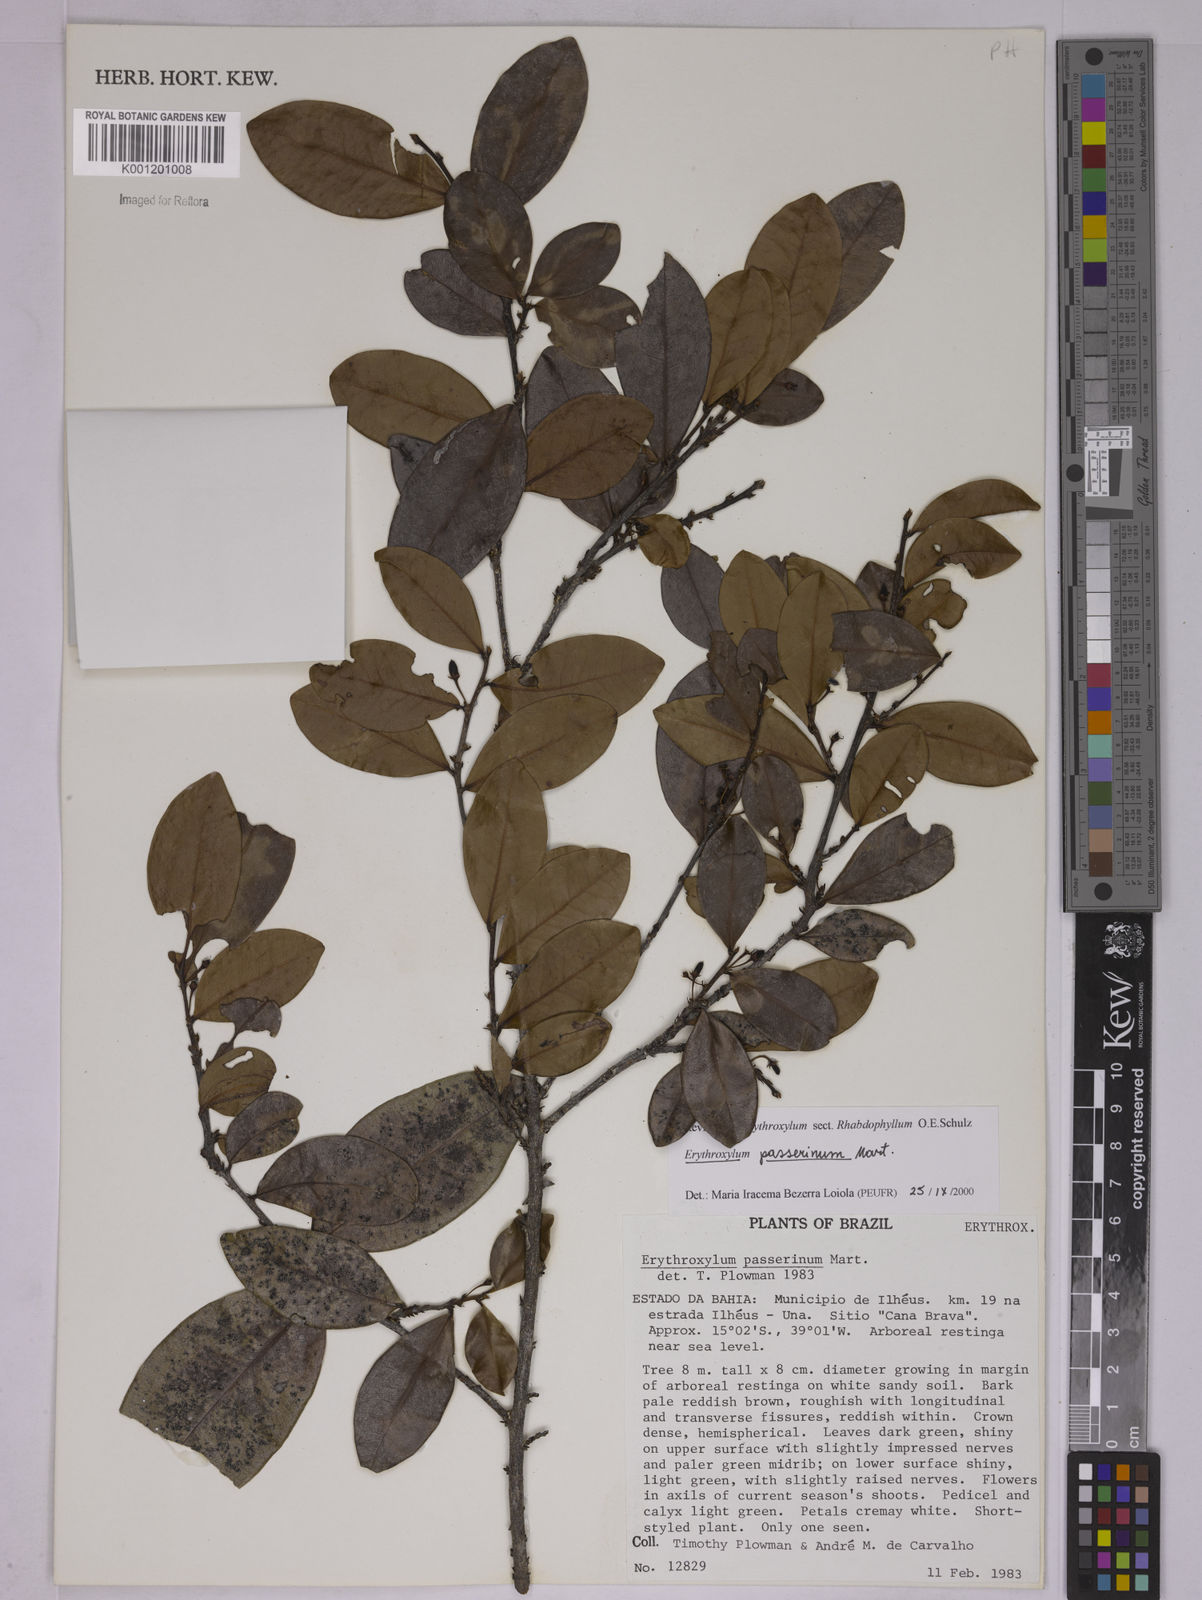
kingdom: Plantae
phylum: Tracheophyta
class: Magnoliopsida
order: Malpighiales
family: Erythroxylaceae
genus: Erythroxylum
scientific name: Erythroxylum passerinum
